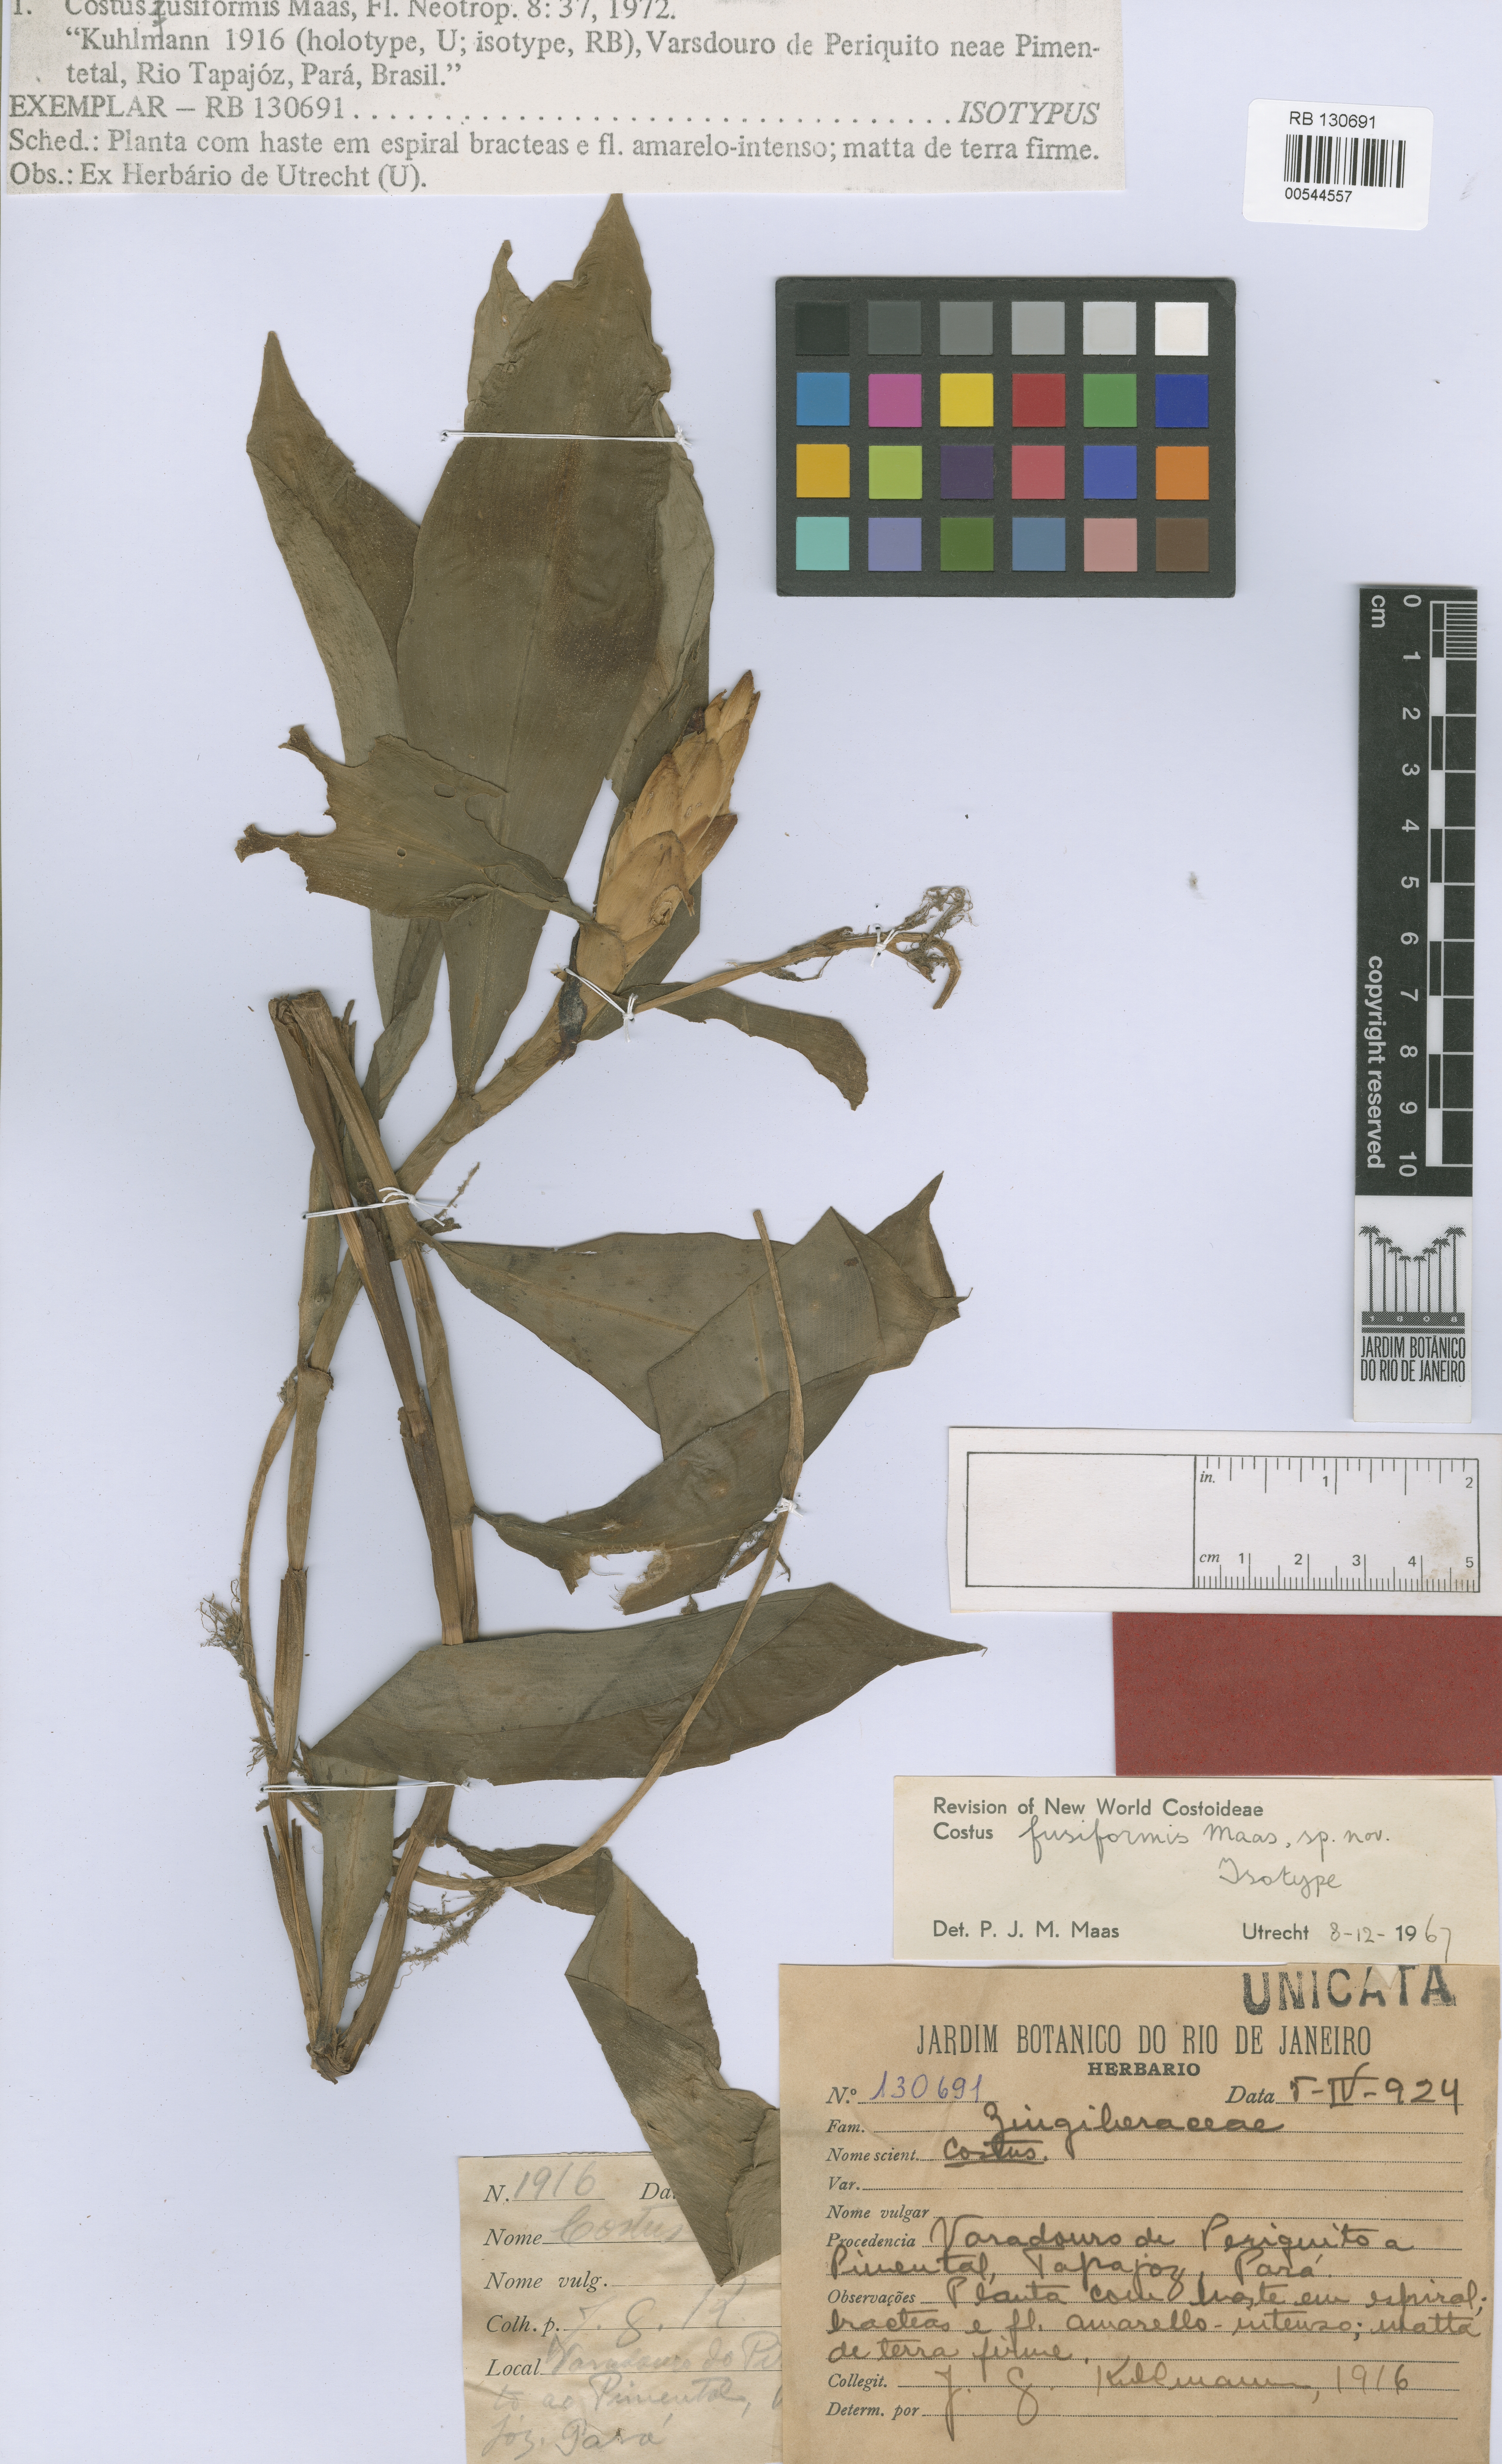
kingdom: Plantae
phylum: Tracheophyta
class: Liliopsida
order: Zingiberales
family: Costaceae
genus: Chamaecostus
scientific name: Chamaecostus fusiformis
